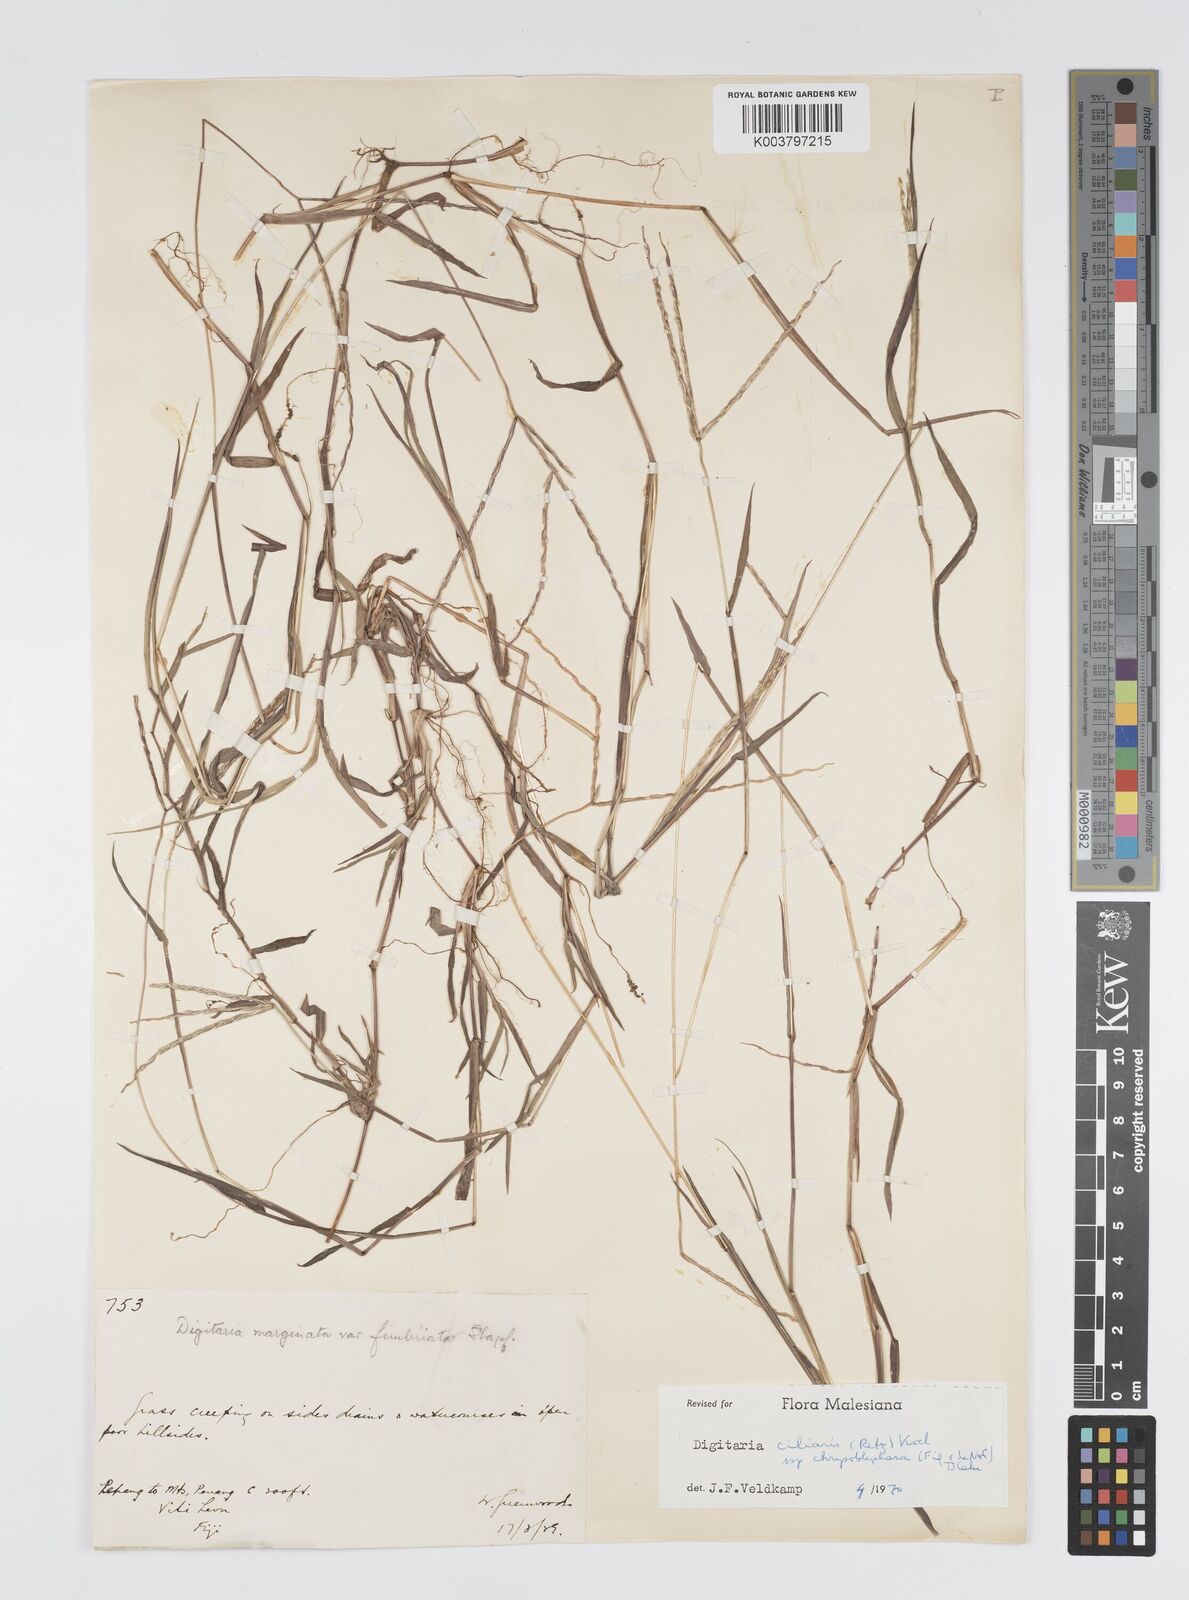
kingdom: Plantae
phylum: Tracheophyta
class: Liliopsida
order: Poales
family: Poaceae
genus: Digitaria
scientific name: Digitaria bicornis
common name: Asian crabgrass
